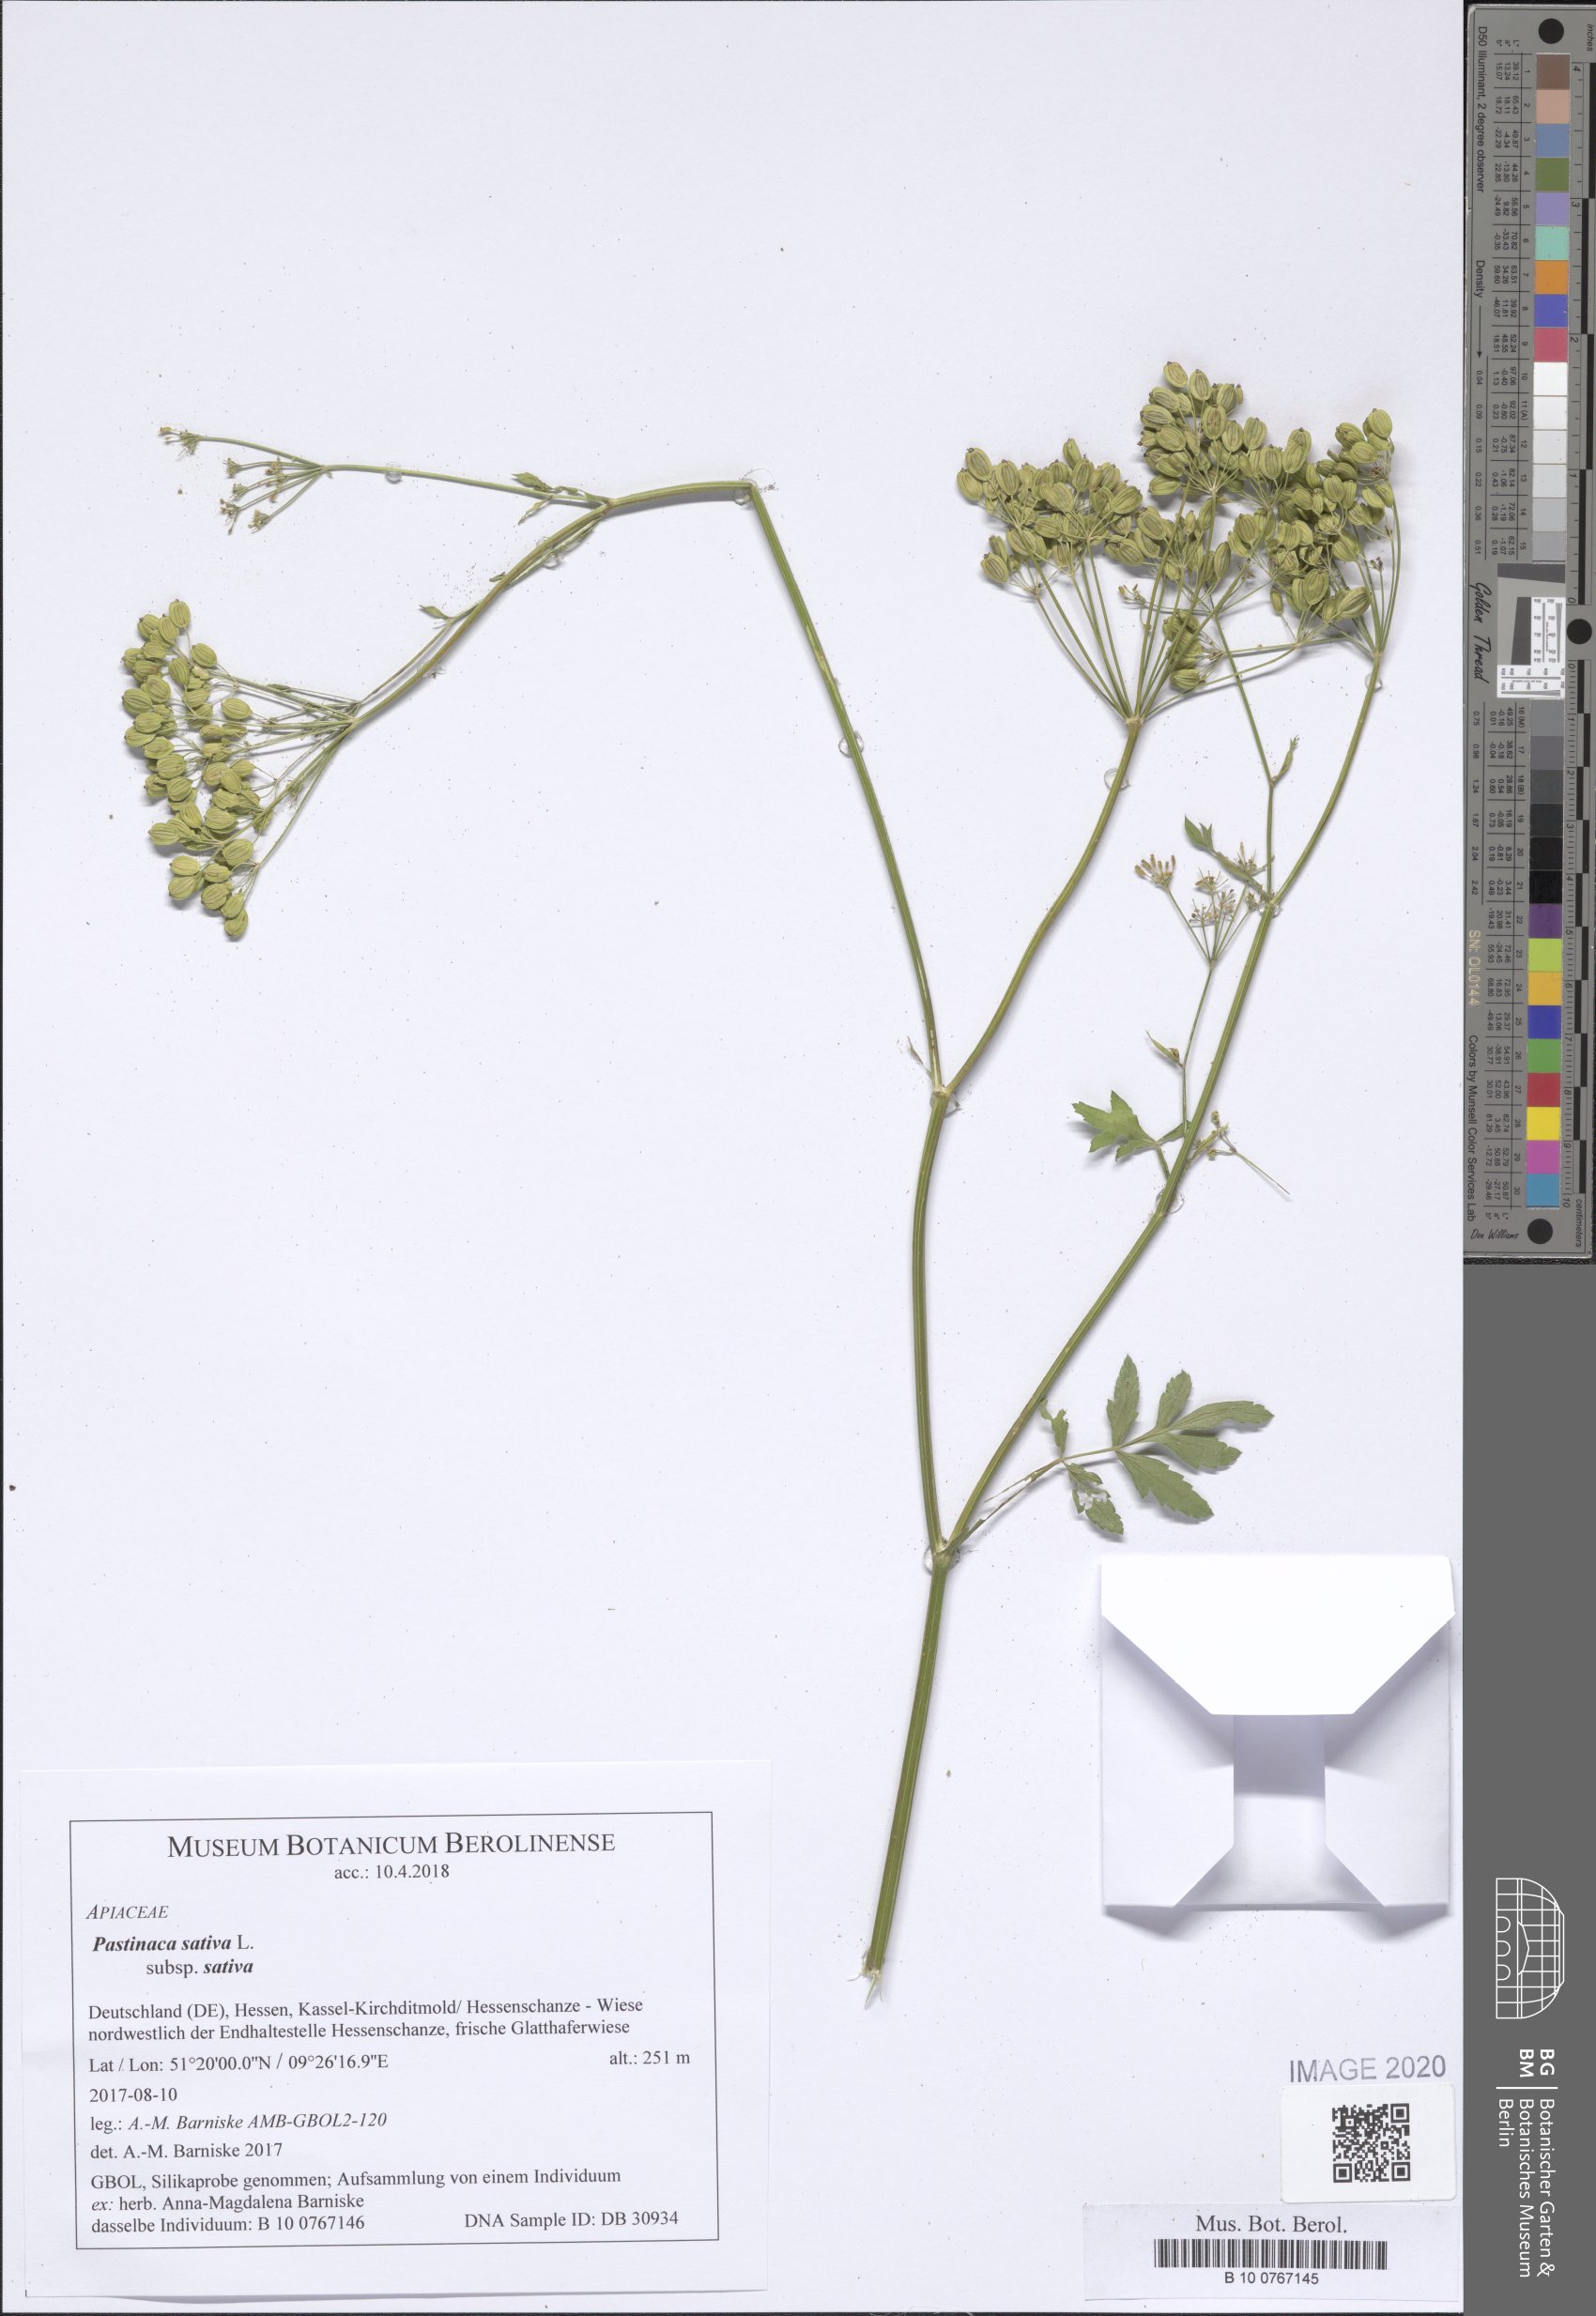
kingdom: Plantae
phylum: Tracheophyta
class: Magnoliopsida
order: Apiales
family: Apiaceae
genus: Pastinaca
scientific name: Pastinaca sativa
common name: Wild parsnip
